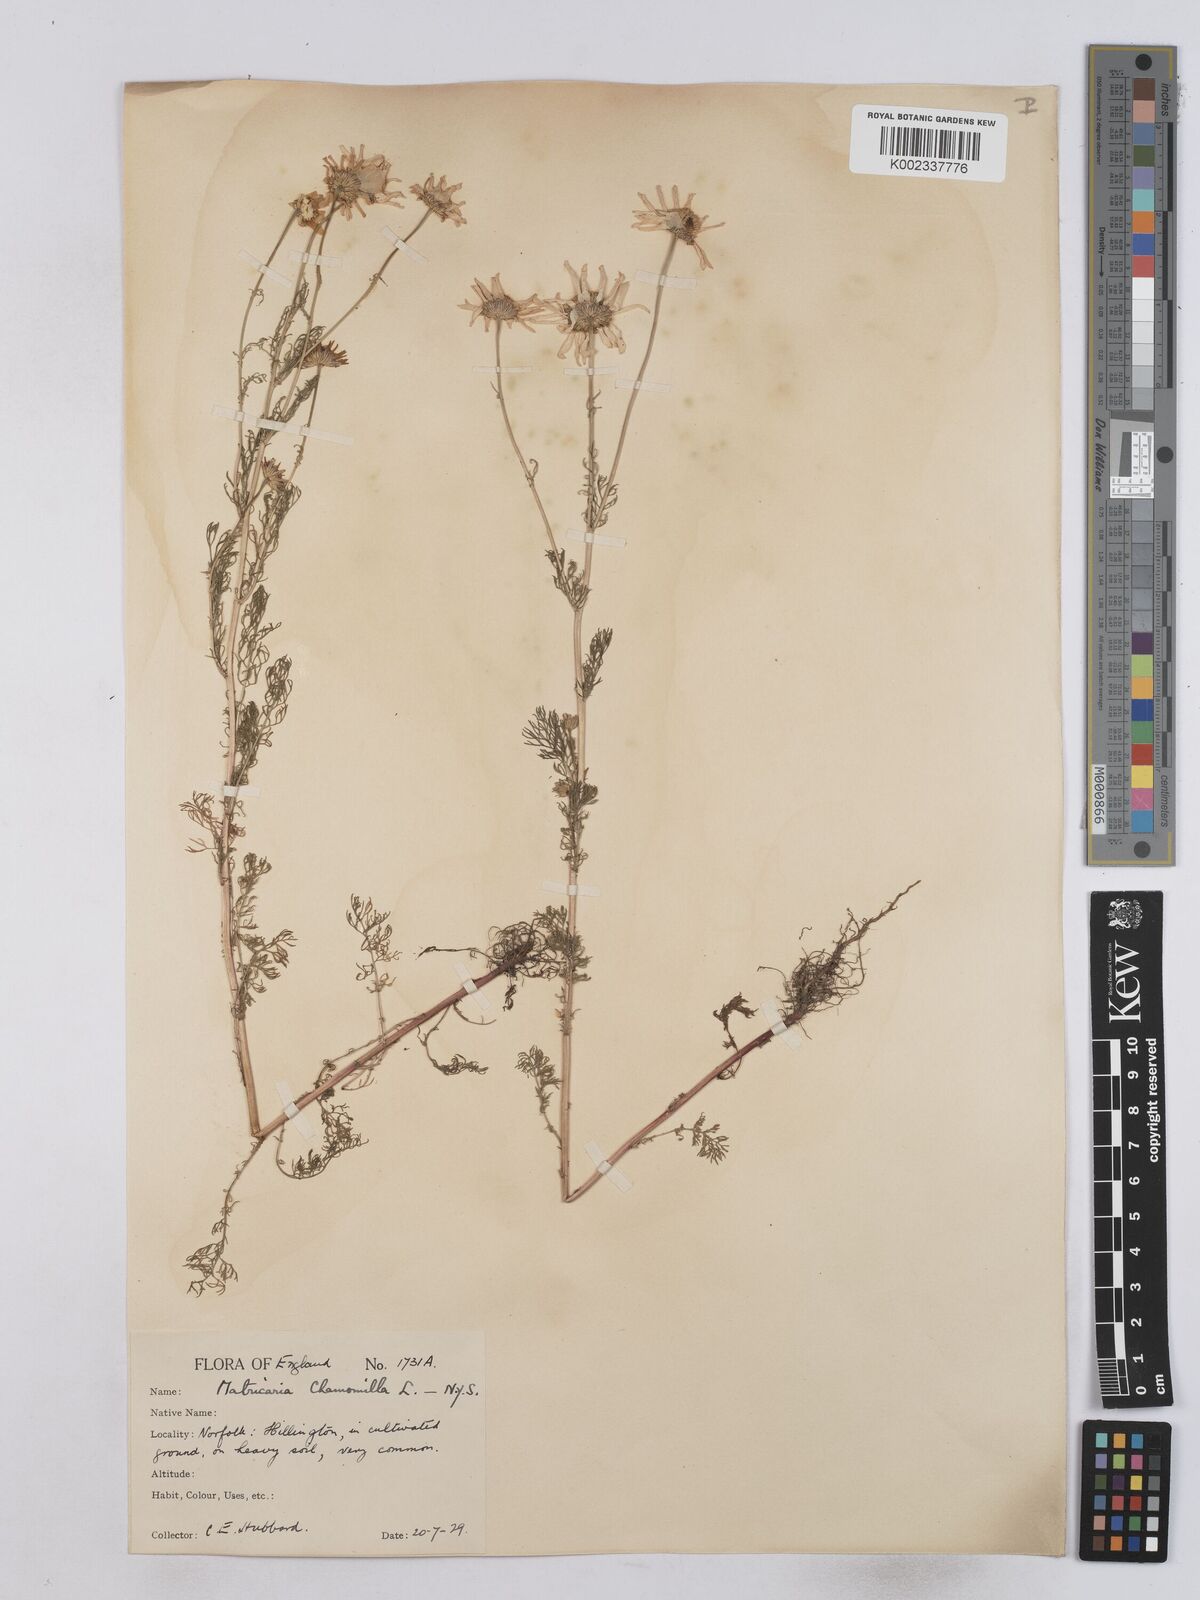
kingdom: Plantae
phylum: Tracheophyta
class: Magnoliopsida
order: Asterales
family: Asteraceae
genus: Matricaria
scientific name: Matricaria chamomilla
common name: Scented mayweed
